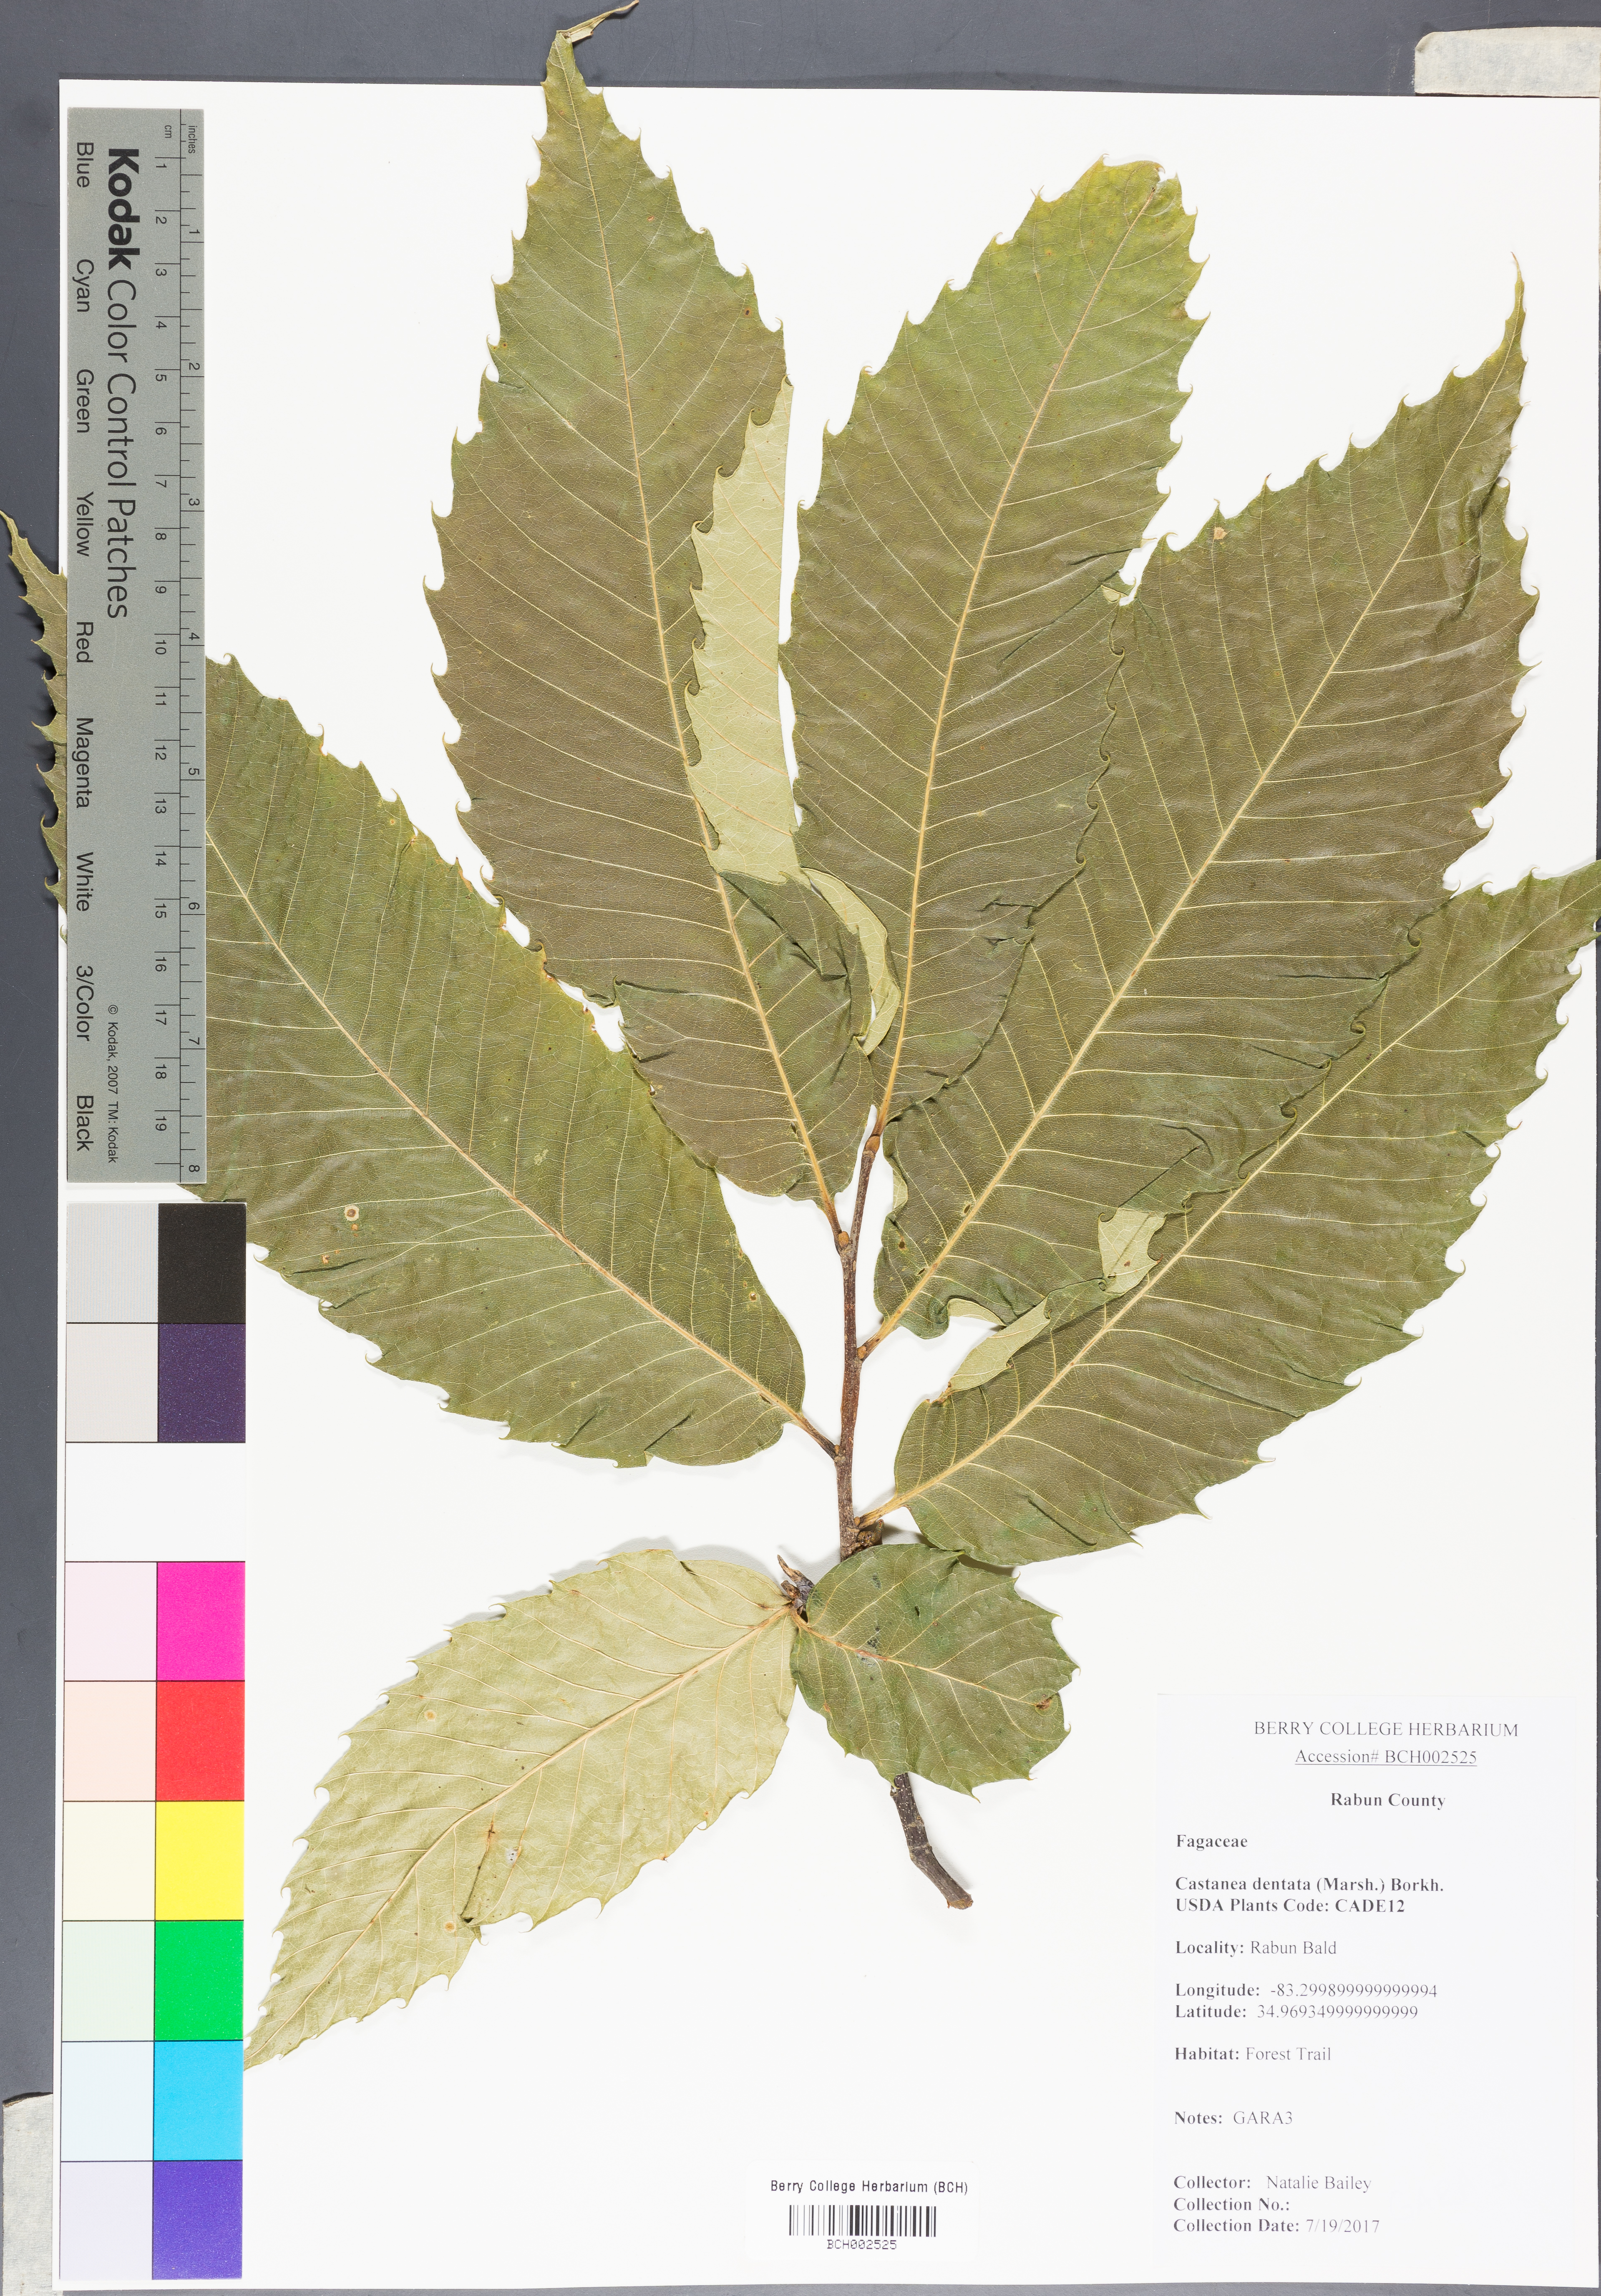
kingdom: Plantae
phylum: Tracheophyta
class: Magnoliopsida
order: Fagales
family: Fagaceae
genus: Castanea
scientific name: Castanea dentata
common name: American chestnut
